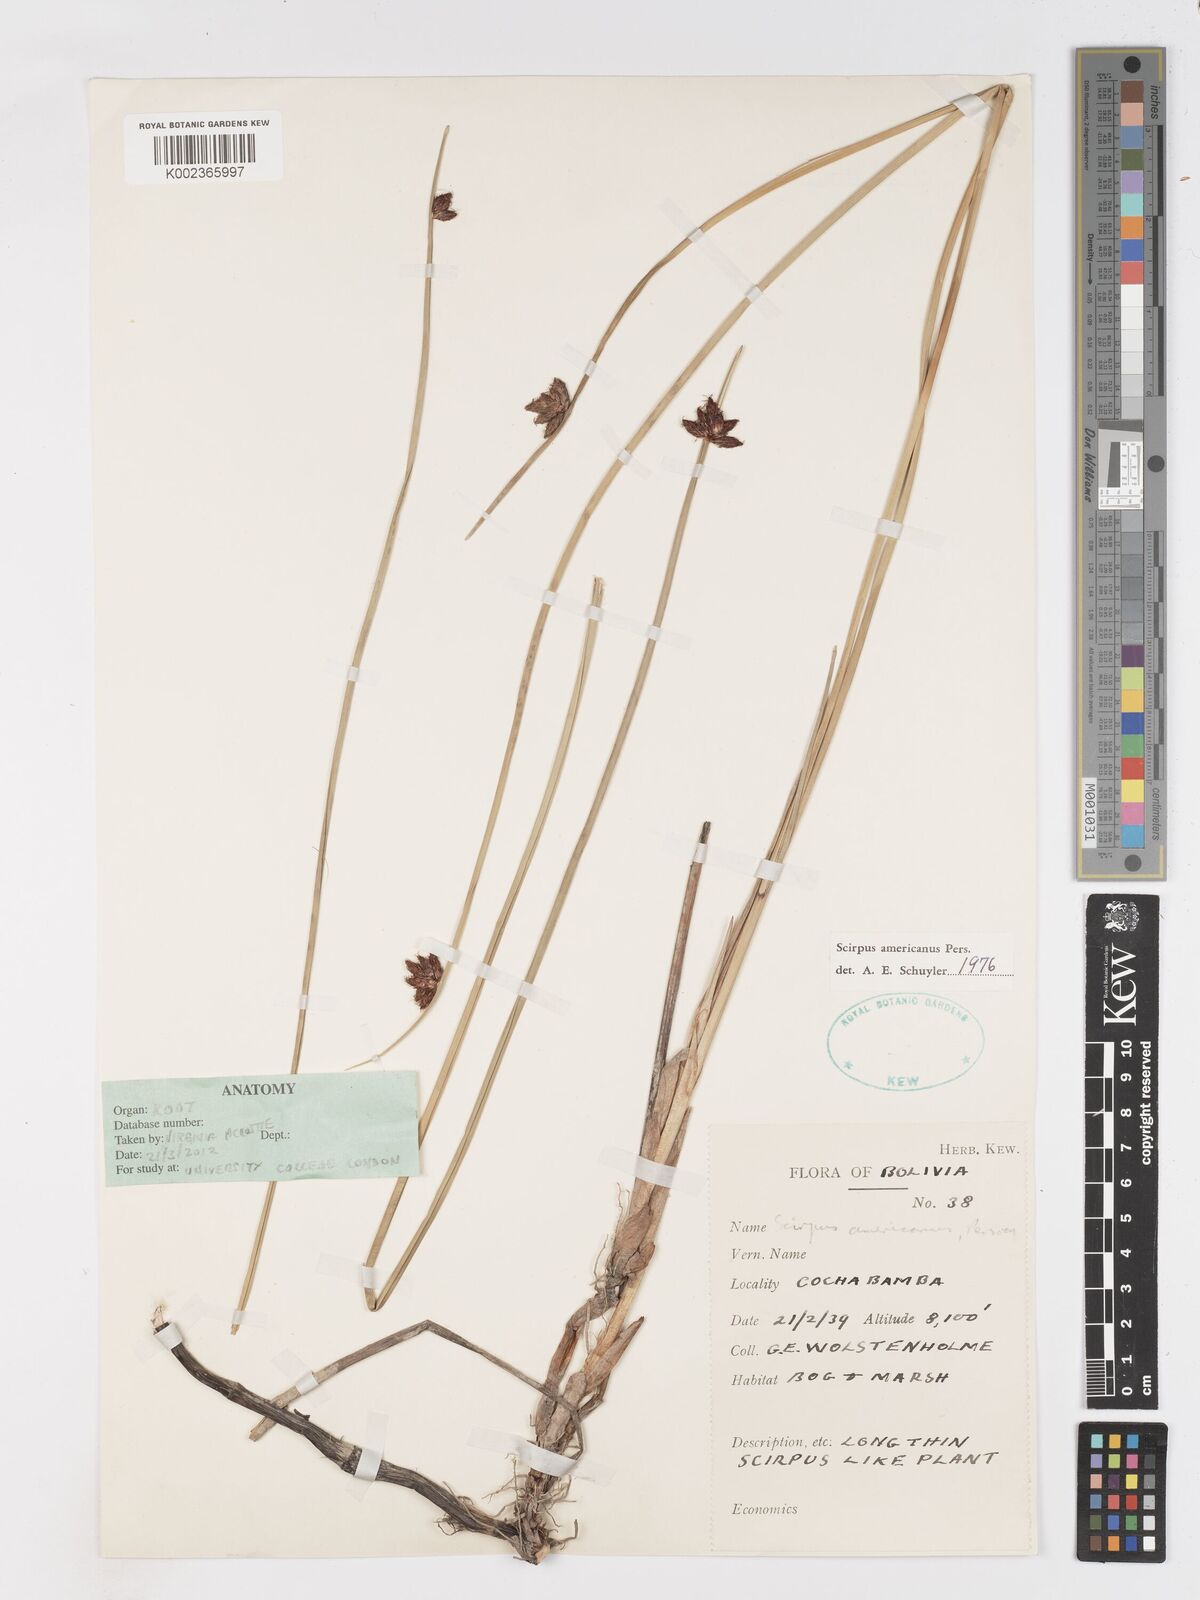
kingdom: Plantae
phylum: Tracheophyta
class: Liliopsida
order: Poales
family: Cyperaceae
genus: Schoenoplectus
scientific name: Schoenoplectus americanus
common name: American three-square bulrush
